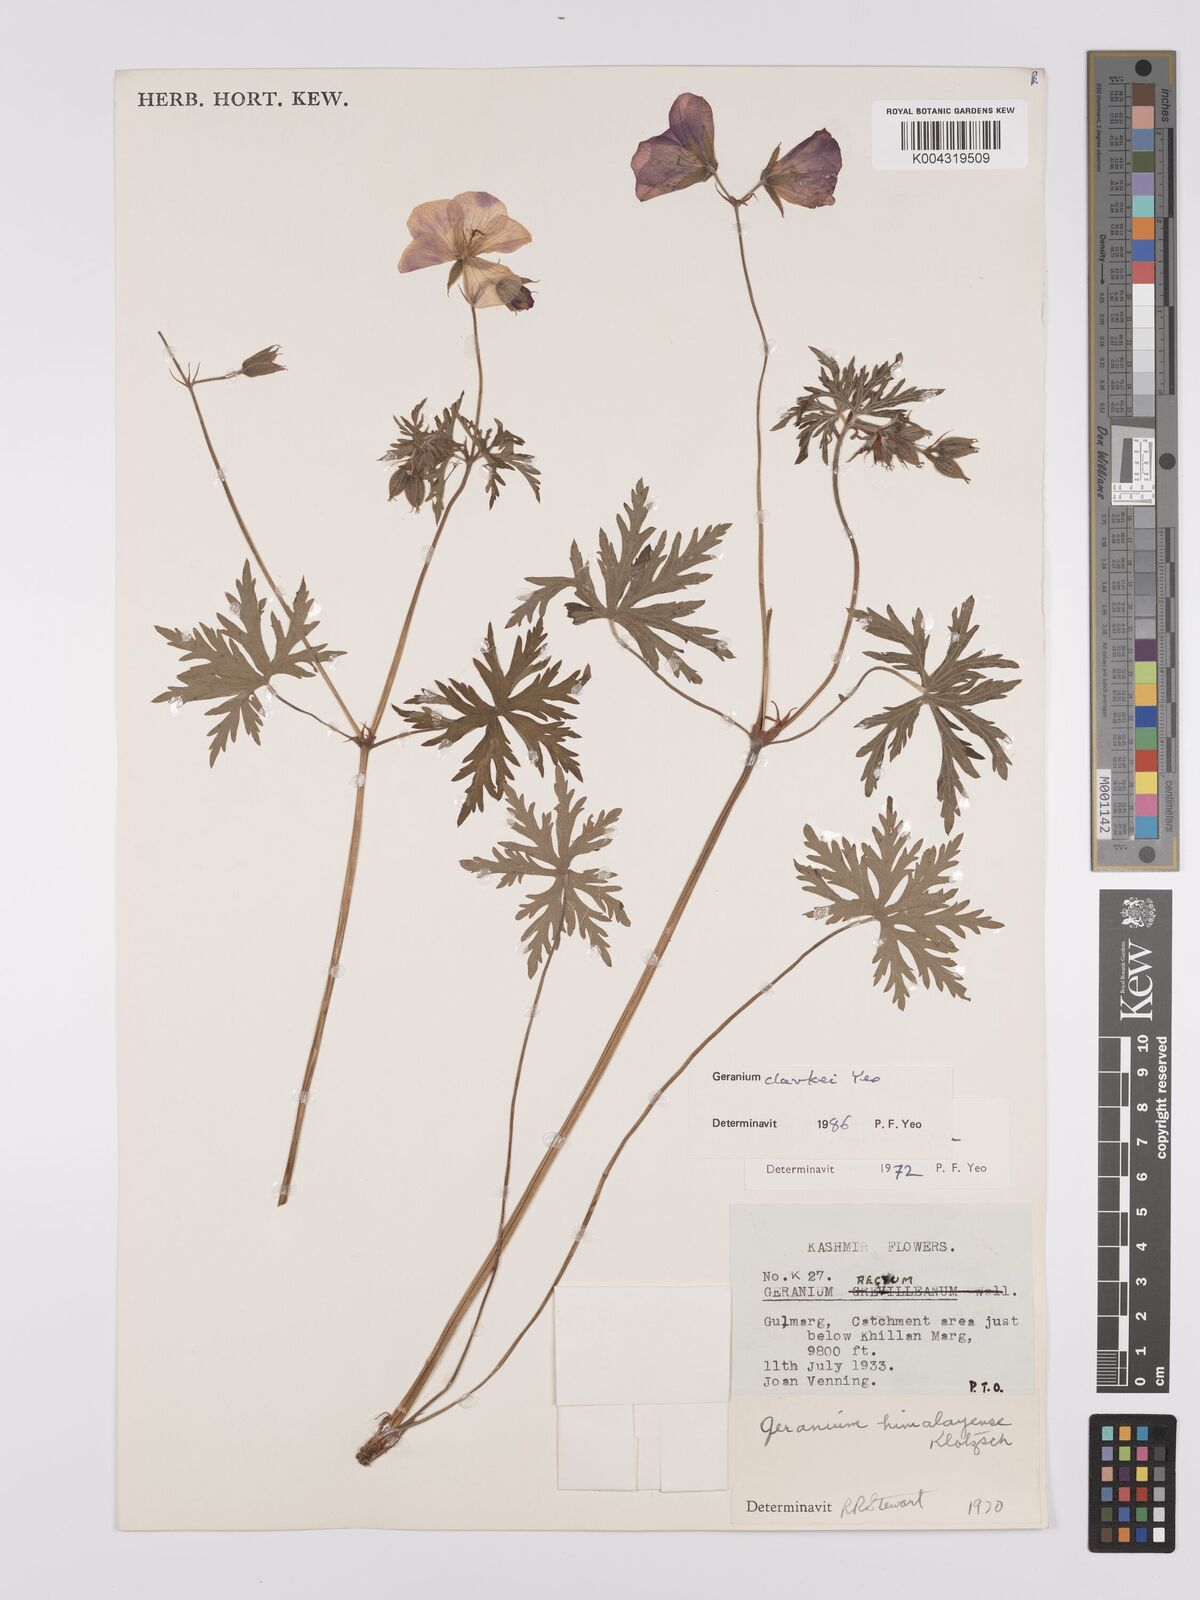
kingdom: Plantae
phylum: Tracheophyta
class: Magnoliopsida
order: Geraniales
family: Geraniaceae
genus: Geranium
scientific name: Geranium clarkei
